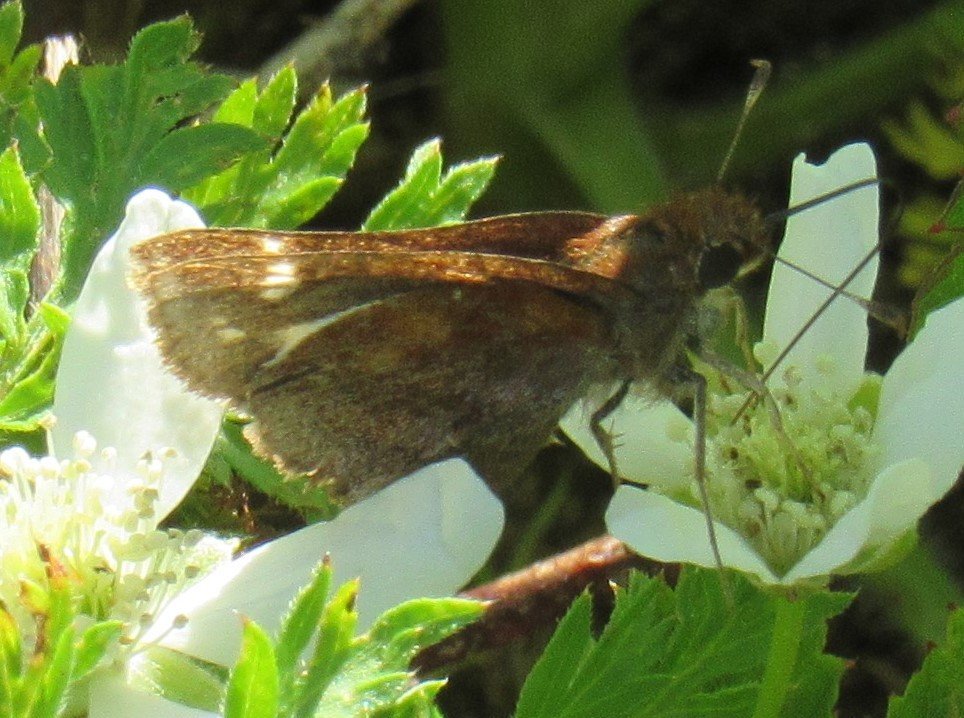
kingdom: Animalia
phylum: Arthropoda
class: Insecta
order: Lepidoptera
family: Hesperiidae
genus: Autochton
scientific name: Autochton
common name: Southern Cloudywing
